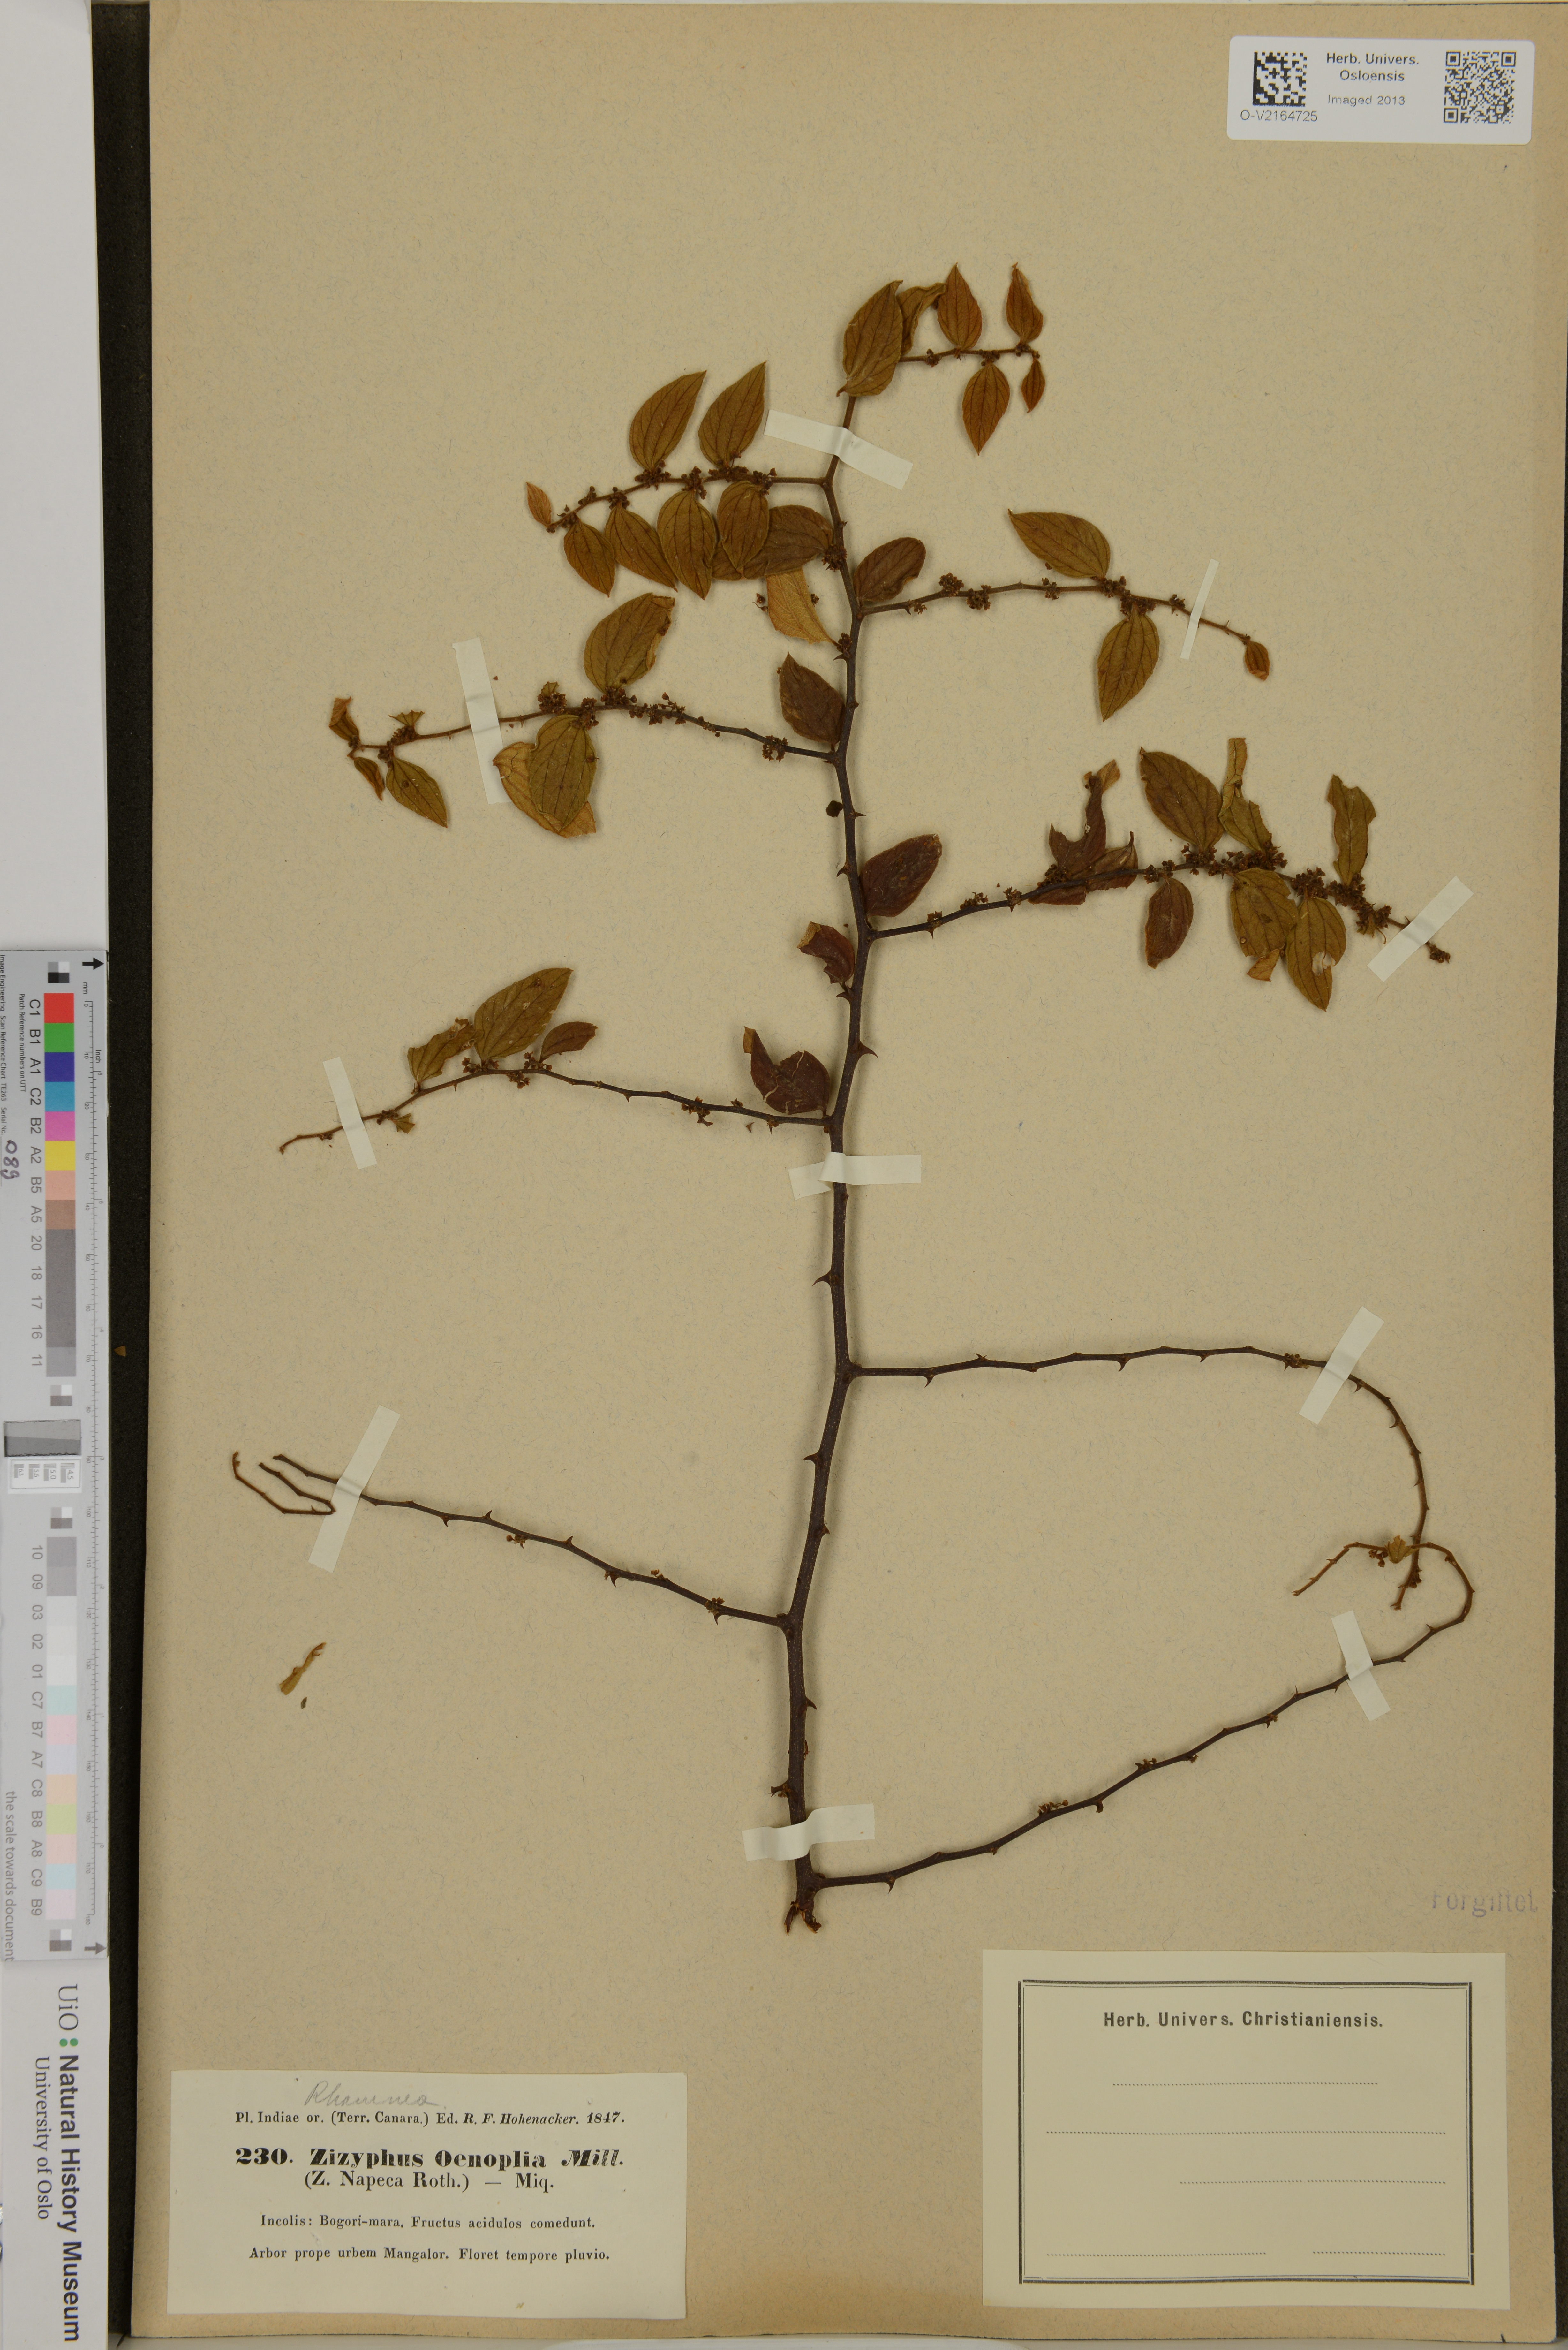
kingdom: Plantae
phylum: Tracheophyta
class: Magnoliopsida
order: Rosales
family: Rhamnaceae
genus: Ziziphus
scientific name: Ziziphus oenopolia
